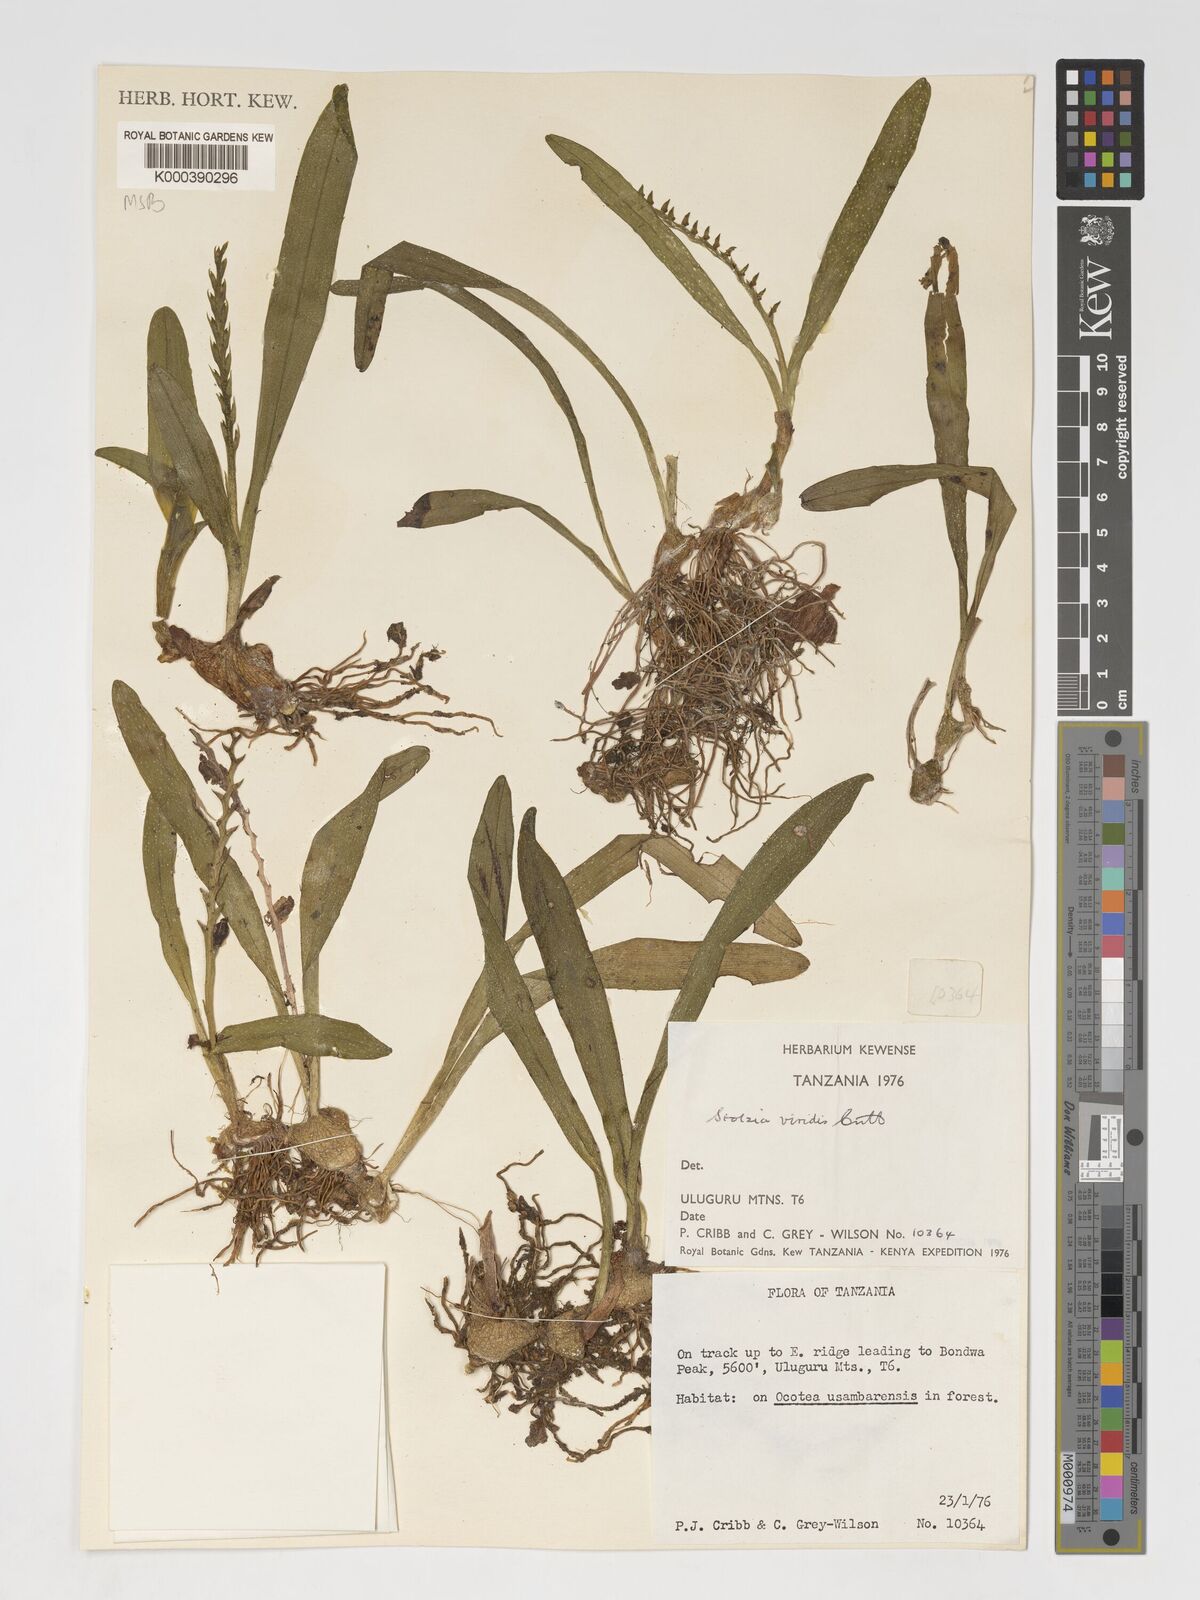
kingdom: Plantae
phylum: Tracheophyta
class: Liliopsida
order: Asparagales
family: Orchidaceae
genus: Porpax
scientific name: Porpax viridis
